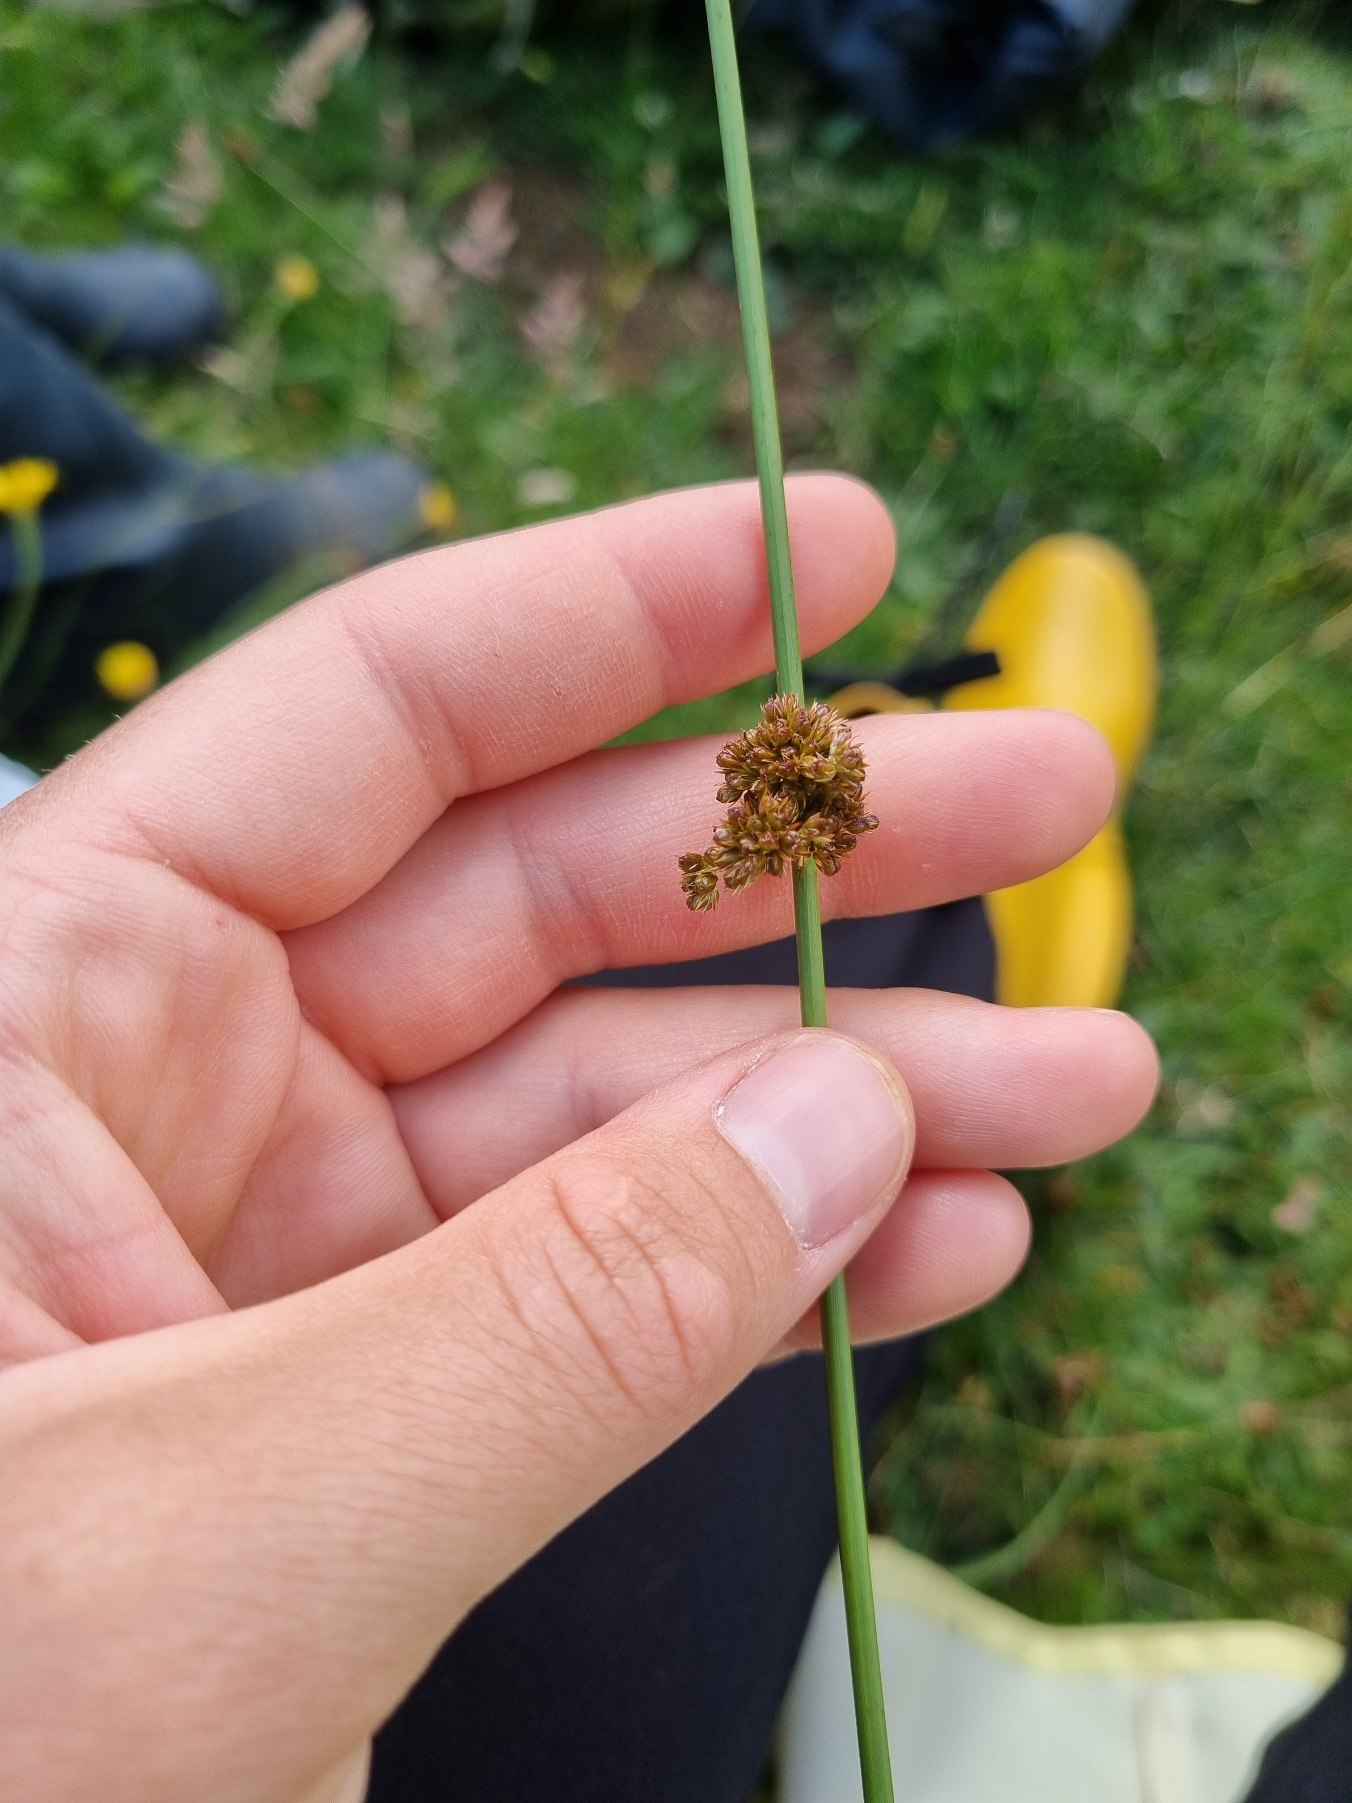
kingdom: Plantae
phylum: Tracheophyta
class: Liliopsida
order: Poales
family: Juncaceae
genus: Juncus
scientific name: Juncus effusus
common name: Lyse-siv
